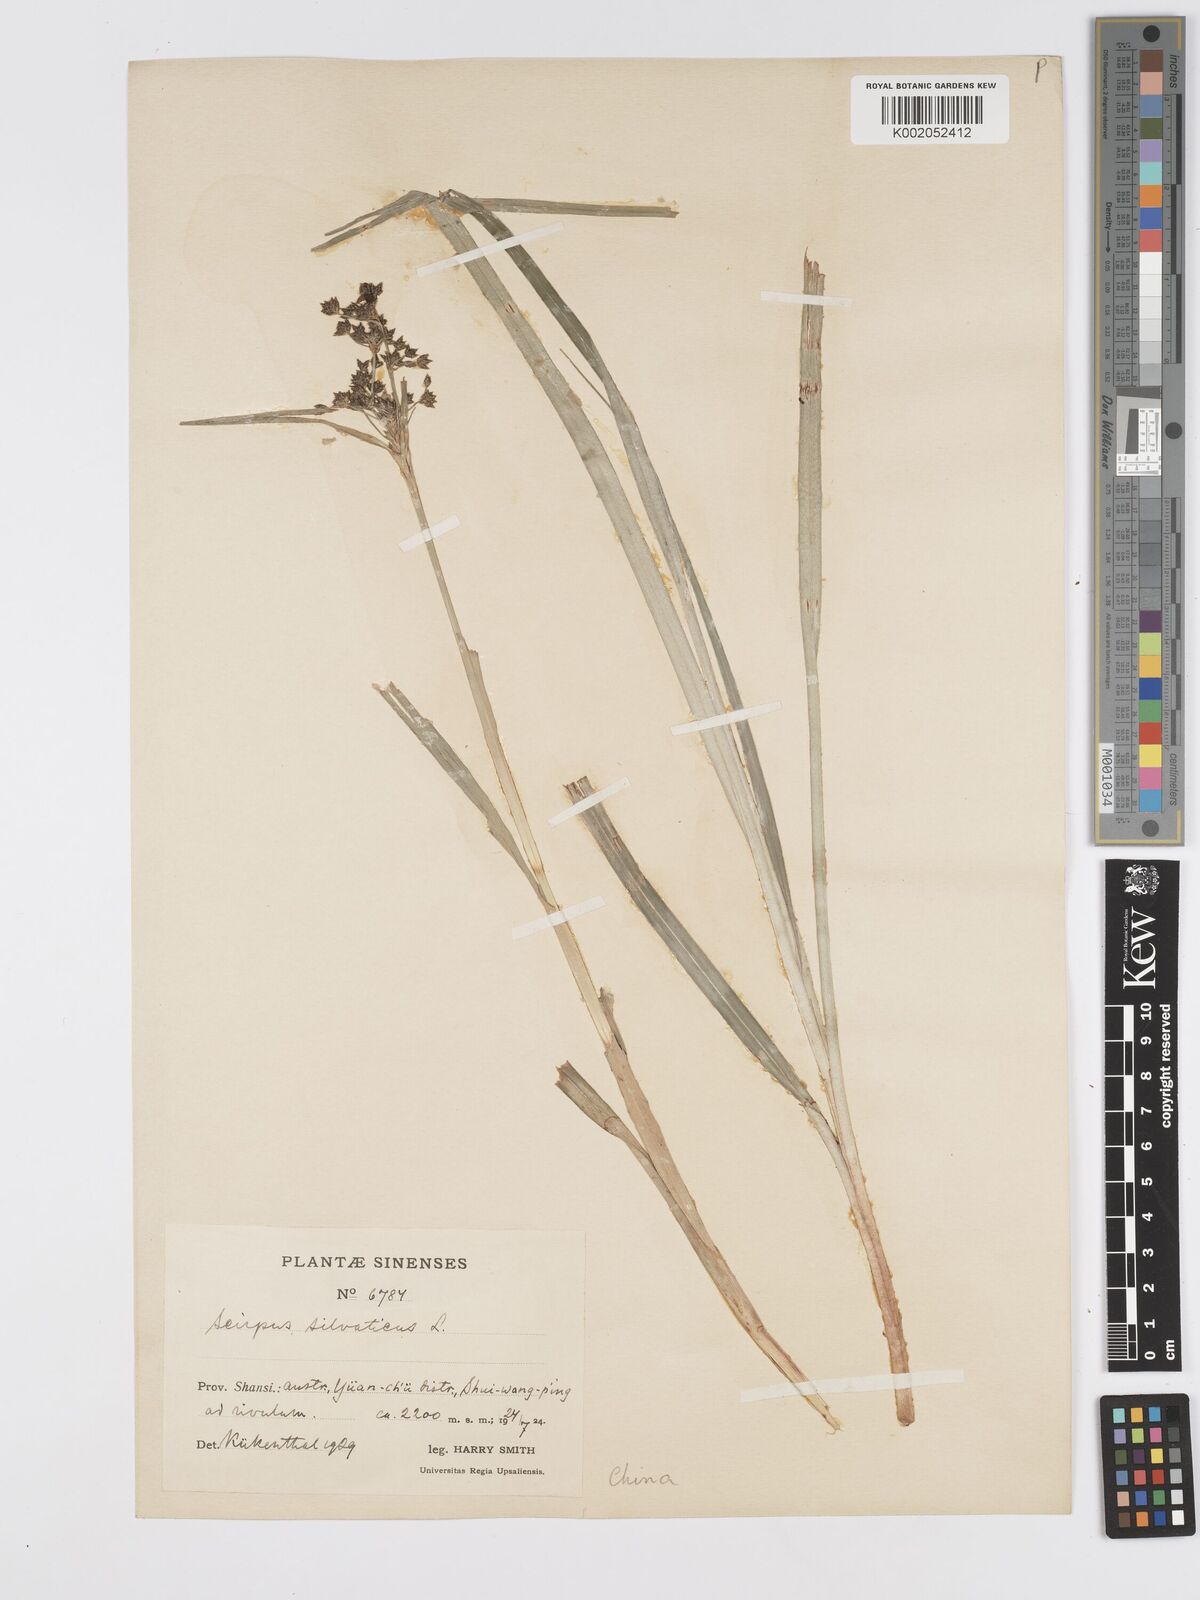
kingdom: Plantae
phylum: Tracheophyta
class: Liliopsida
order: Poales
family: Cyperaceae
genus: Scirpus
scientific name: Scirpus sylvaticus
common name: Wood club-rush
